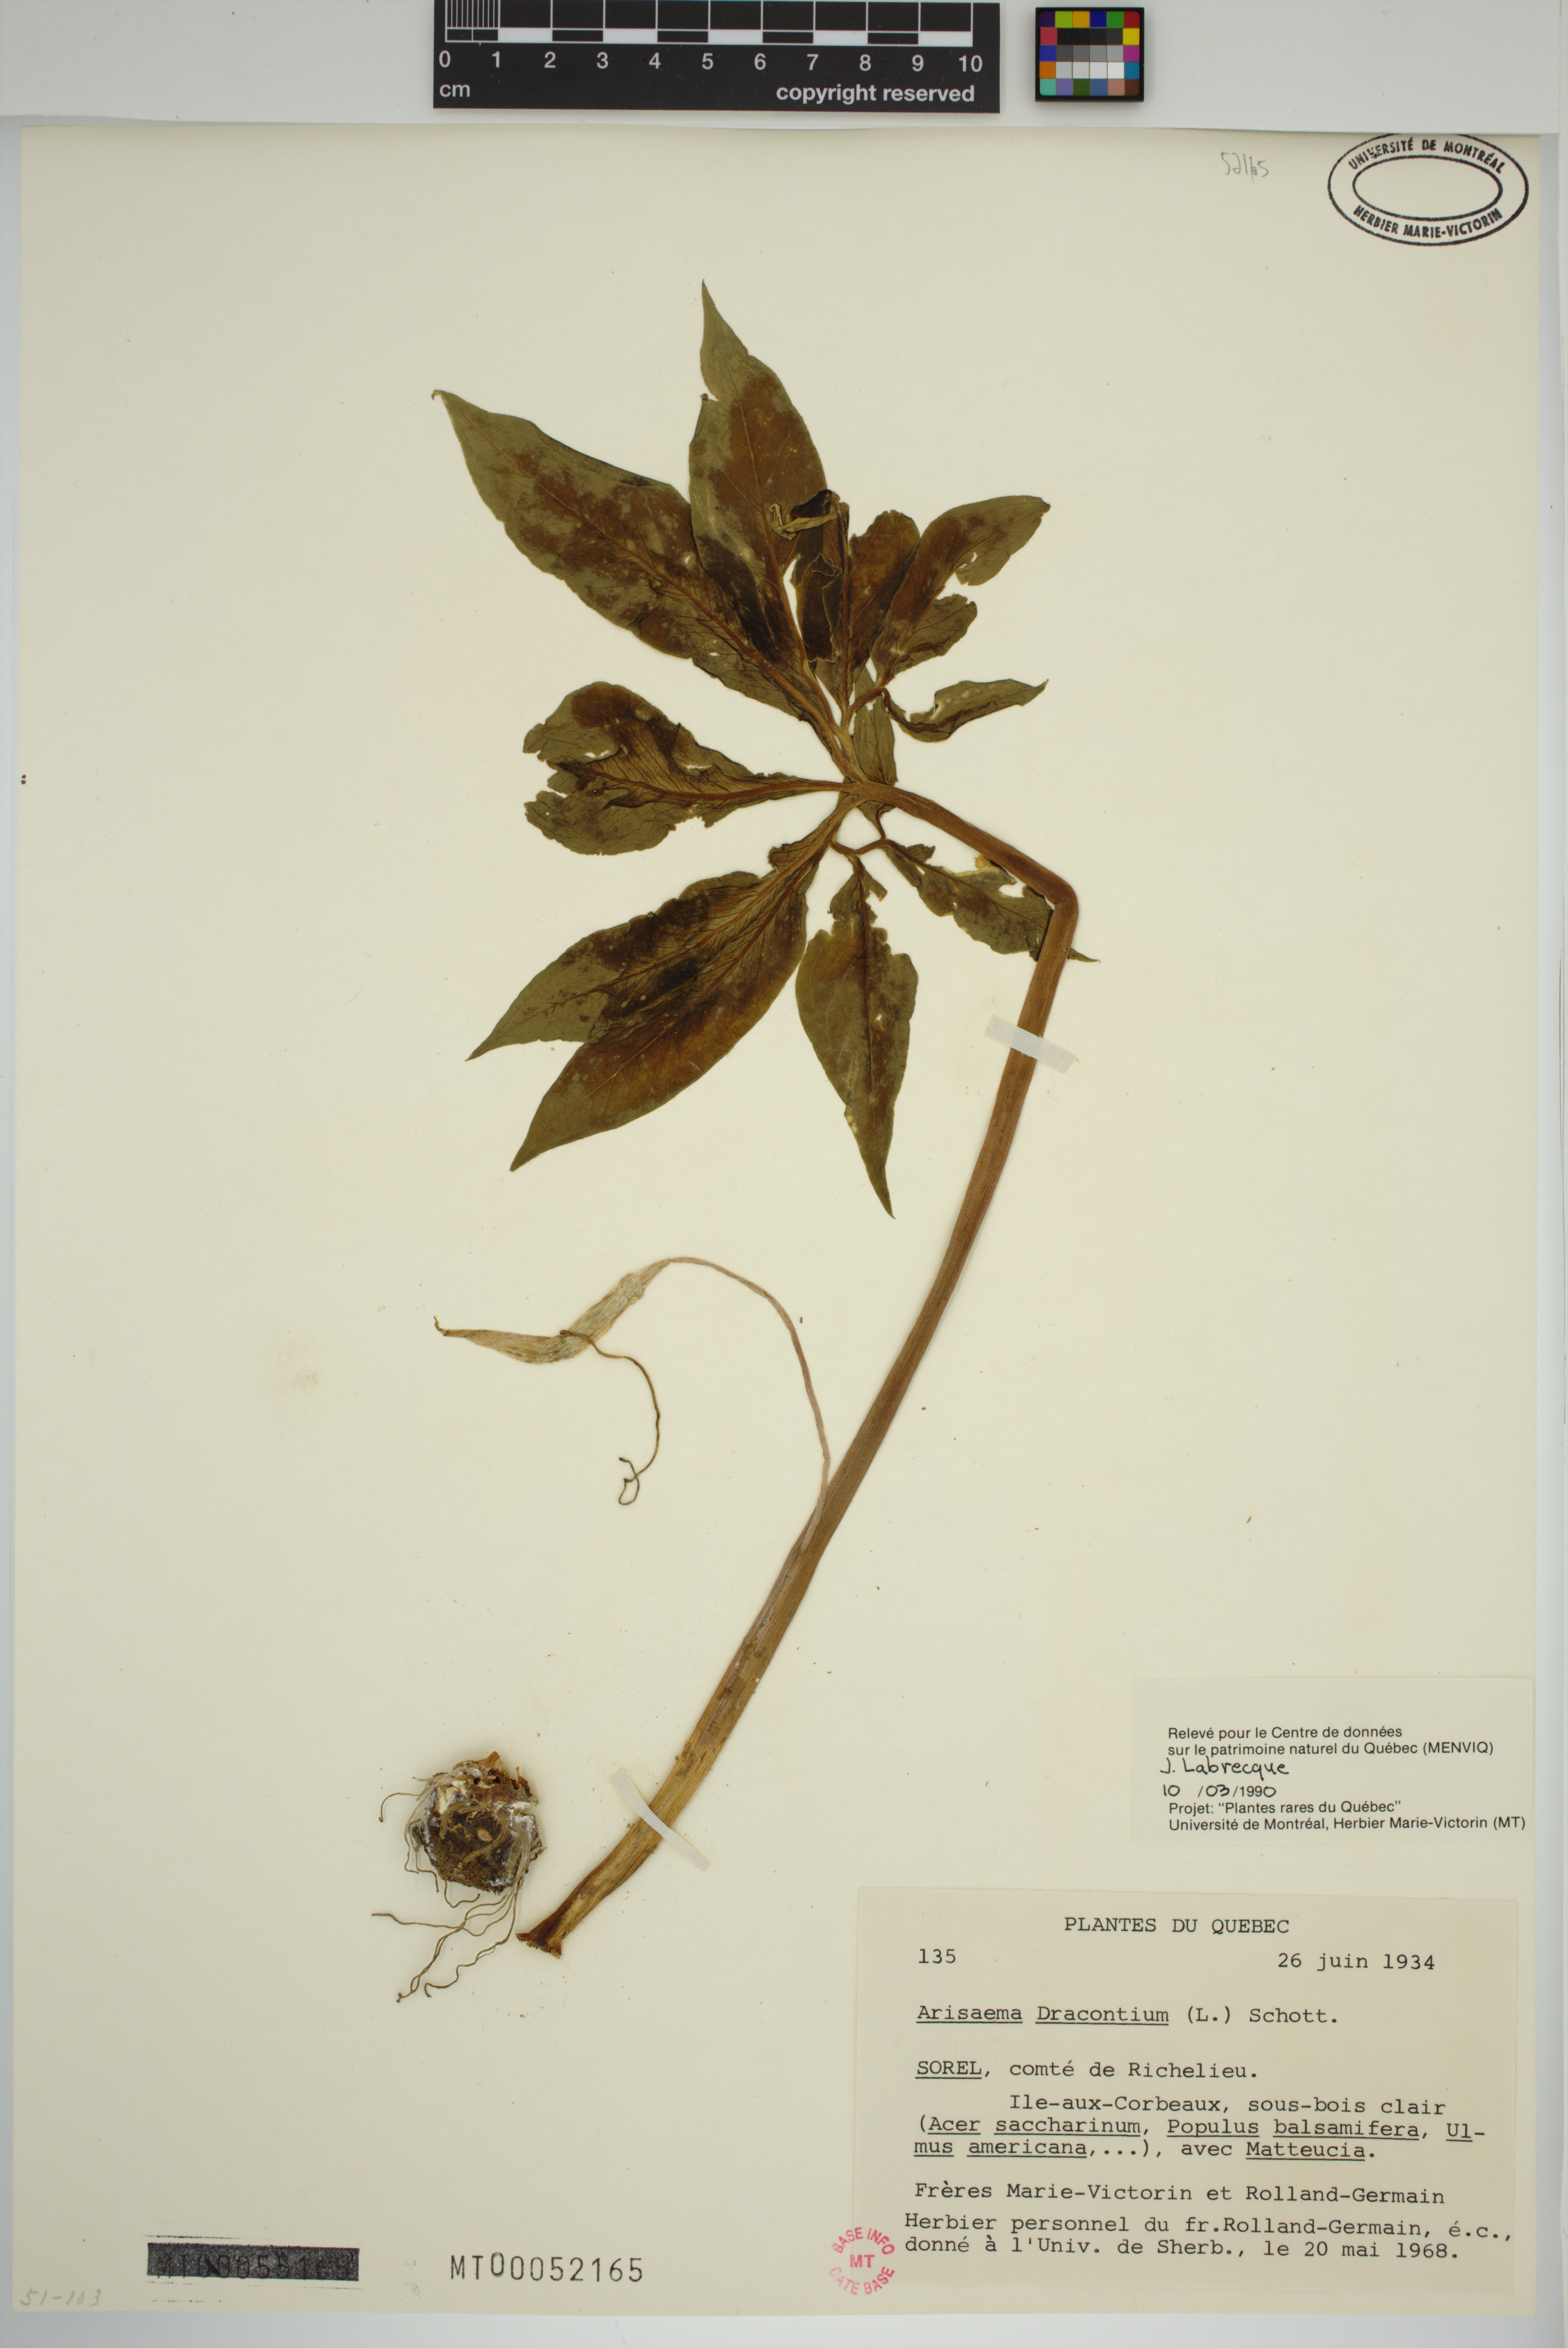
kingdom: Plantae
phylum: Tracheophyta
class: Liliopsida
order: Alismatales
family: Araceae
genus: Arisaema
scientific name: Arisaema dracontium
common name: Dragon-arum
